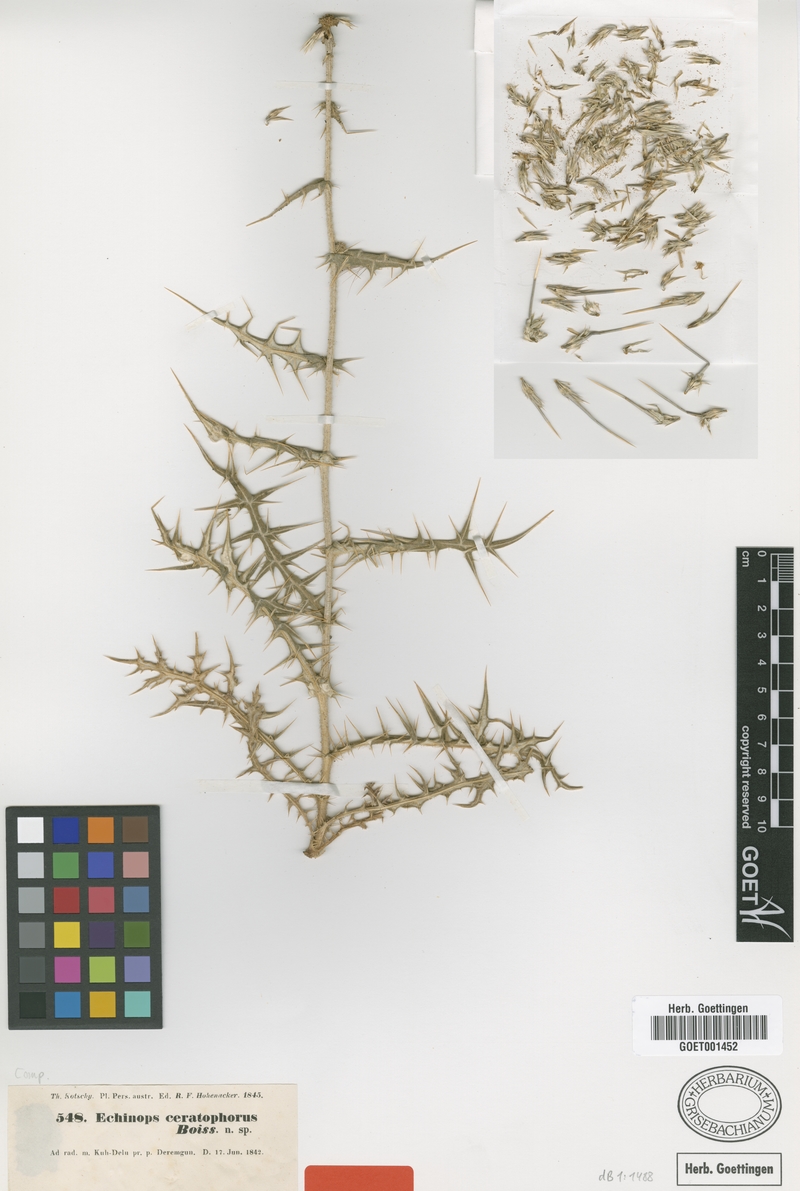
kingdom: Plantae
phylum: Tracheophyta
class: Magnoliopsida
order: Asterales
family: Asteraceae
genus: Echinops
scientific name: Echinops ceratophorus
